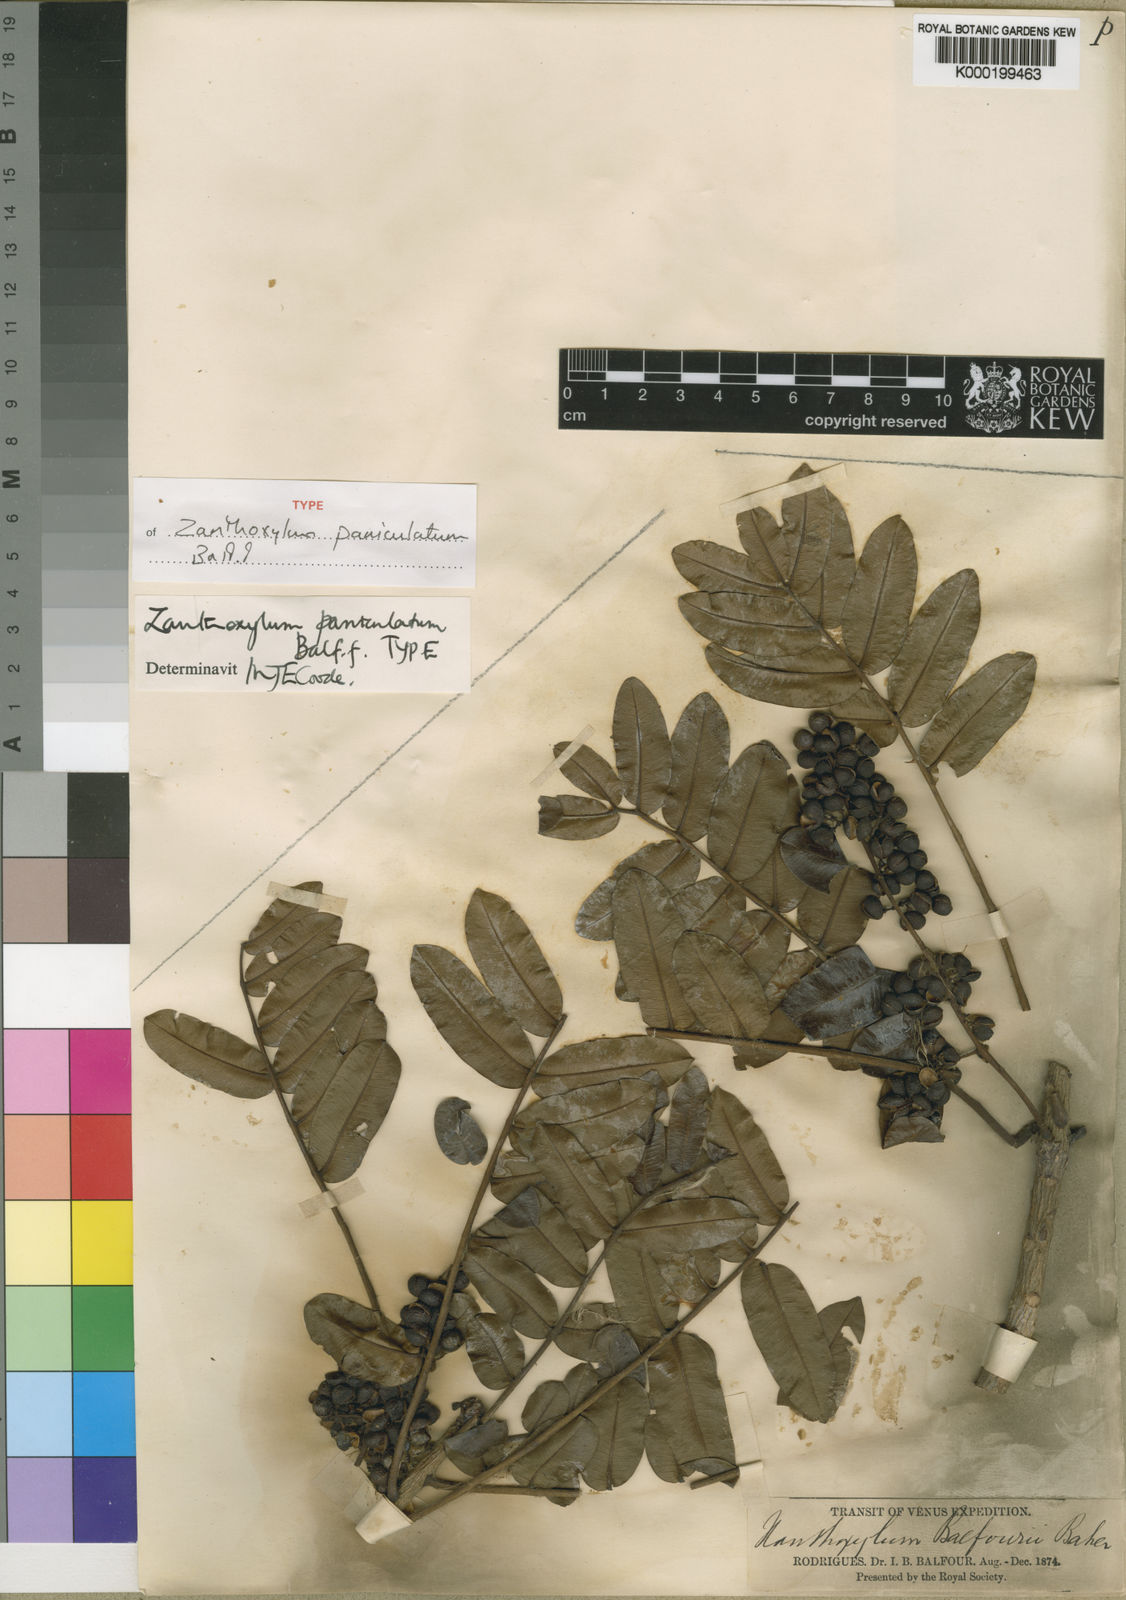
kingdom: Plantae
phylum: Tracheophyta
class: Magnoliopsida
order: Sapindales
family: Rutaceae
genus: Zanthoxylum
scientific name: Zanthoxylum paniculatum
